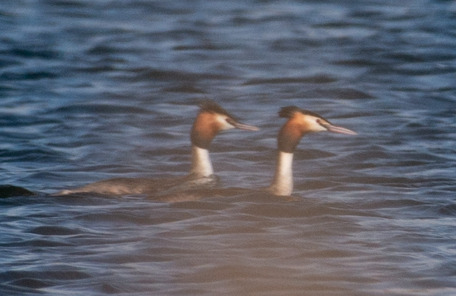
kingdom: Animalia
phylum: Chordata
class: Aves
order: Podicipediformes
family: Podicipedidae
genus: Podiceps
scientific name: Podiceps cristatus
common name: Toppet lappedykker
